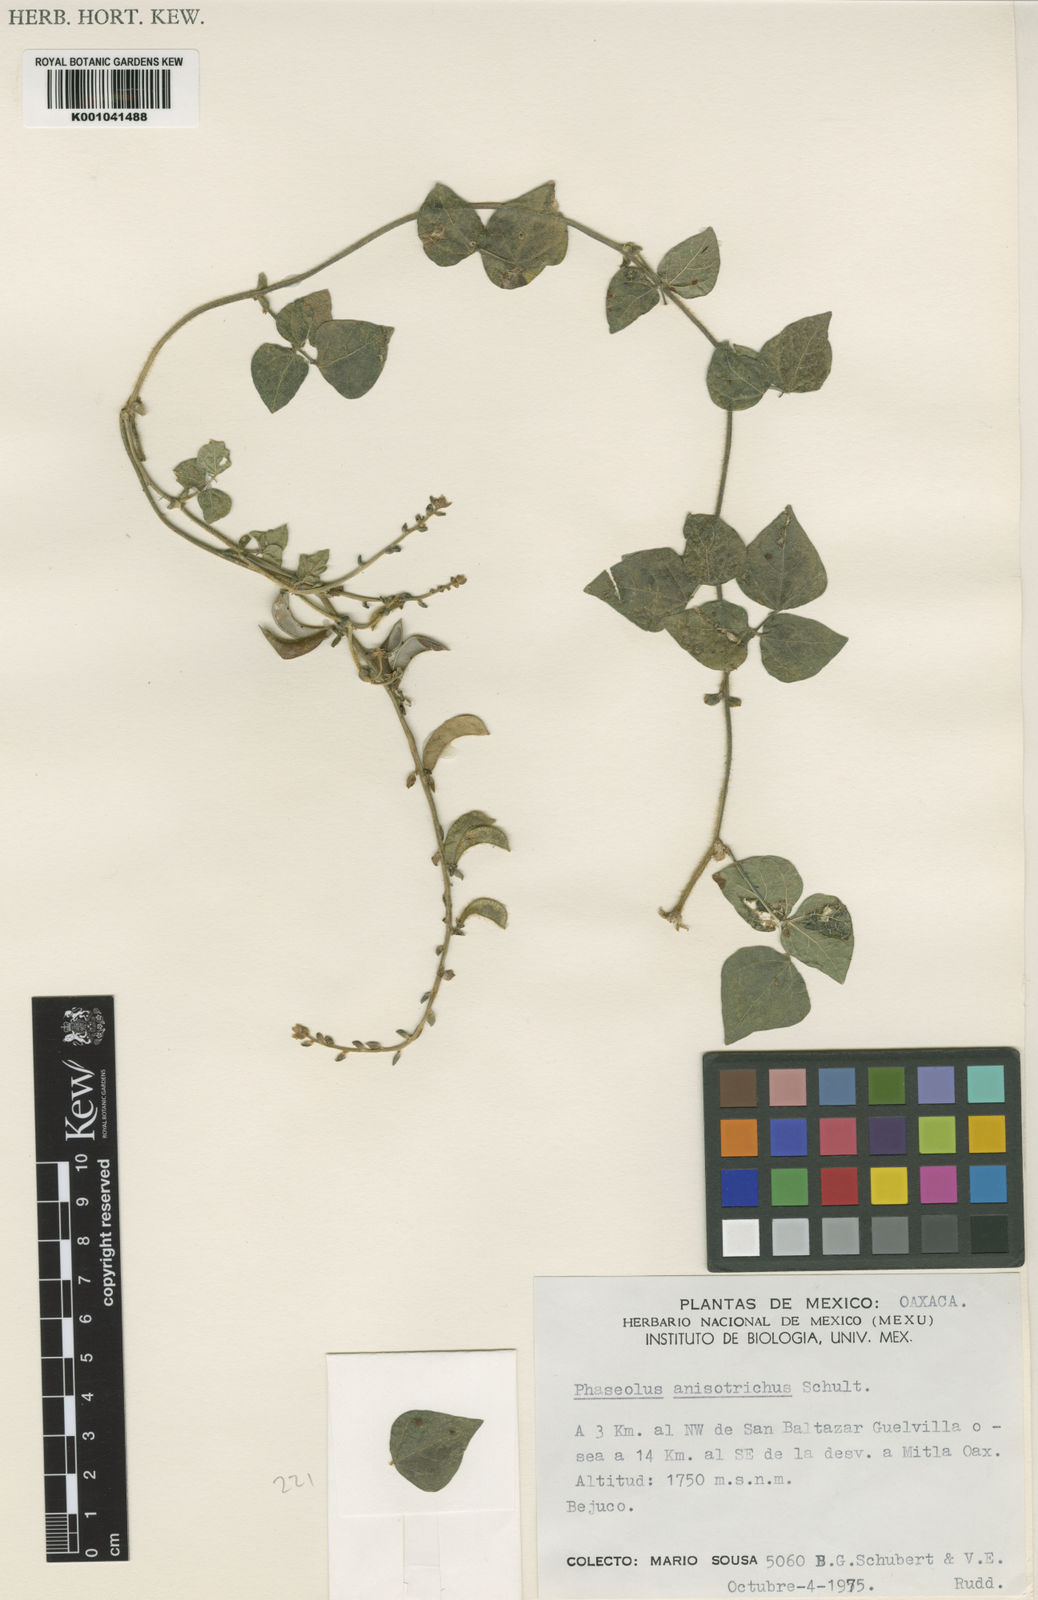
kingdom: Plantae
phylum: Tracheophyta
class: Magnoliopsida
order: Fabales
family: Fabaceae
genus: Phaseolus
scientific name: Phaseolus
